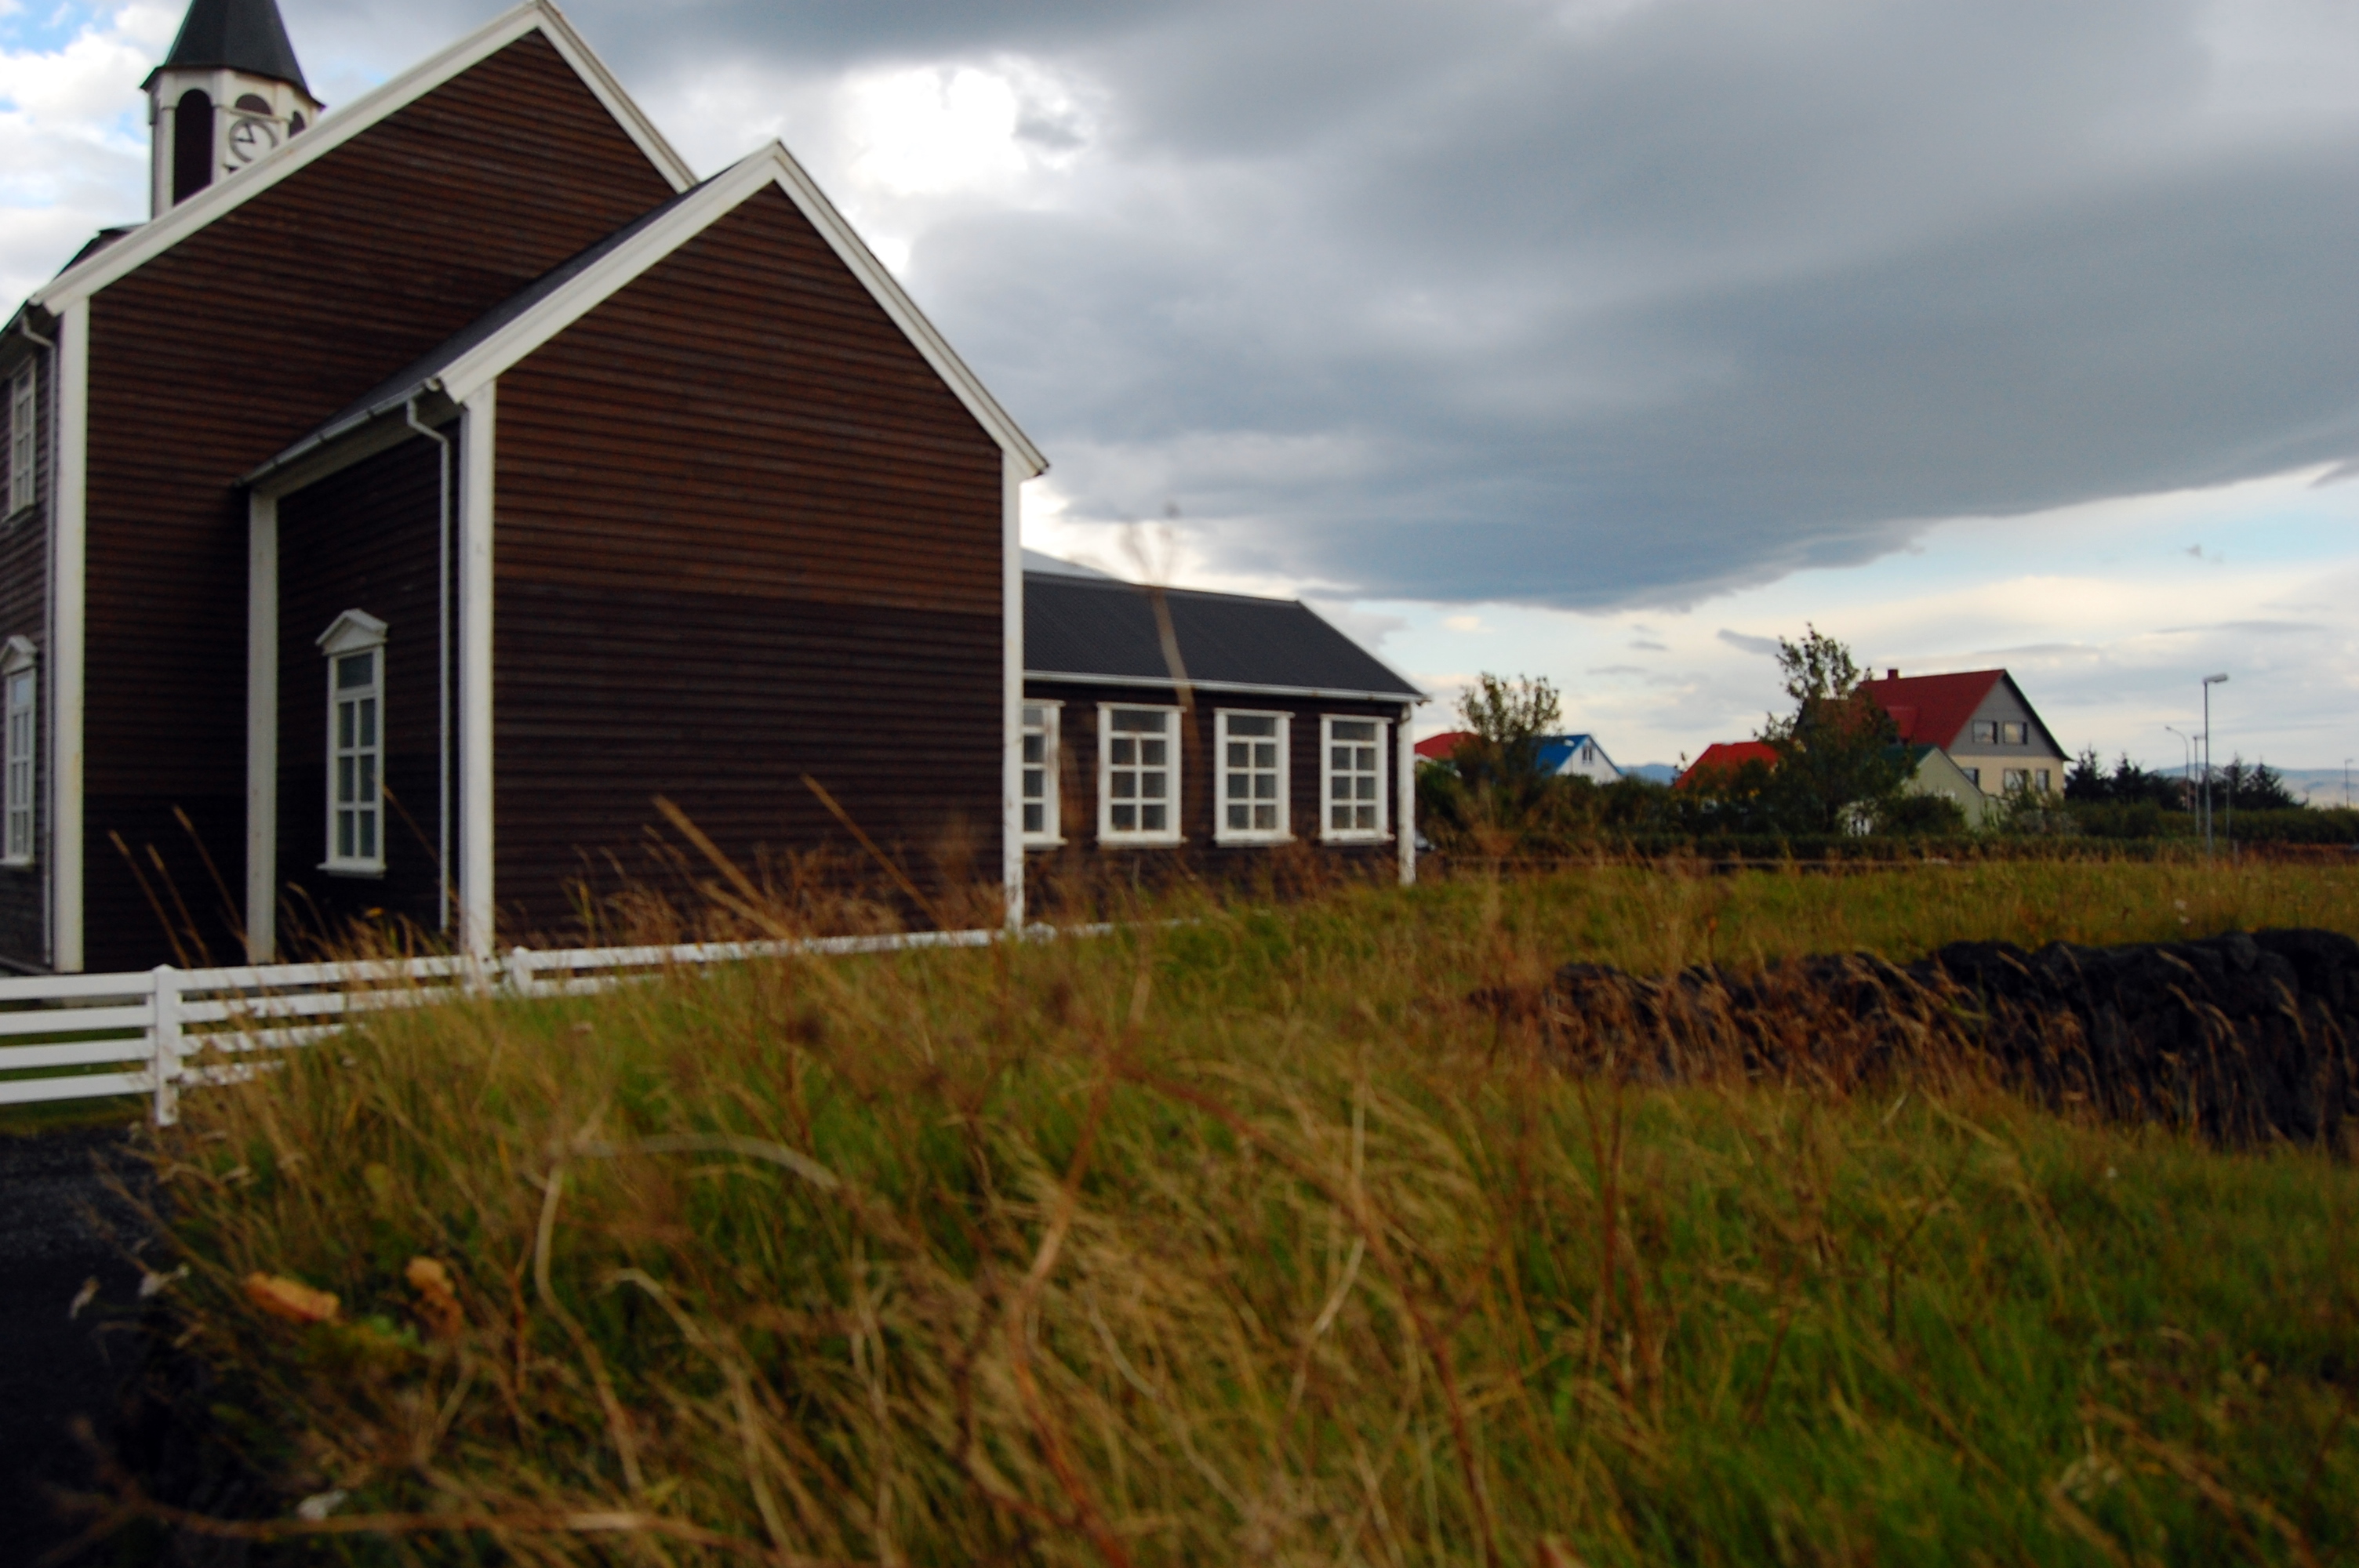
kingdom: Plantae
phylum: Tracheophyta
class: Magnoliopsida
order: Apiales
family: Apiaceae
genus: Carum
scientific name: Carum carvi
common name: Caraway
